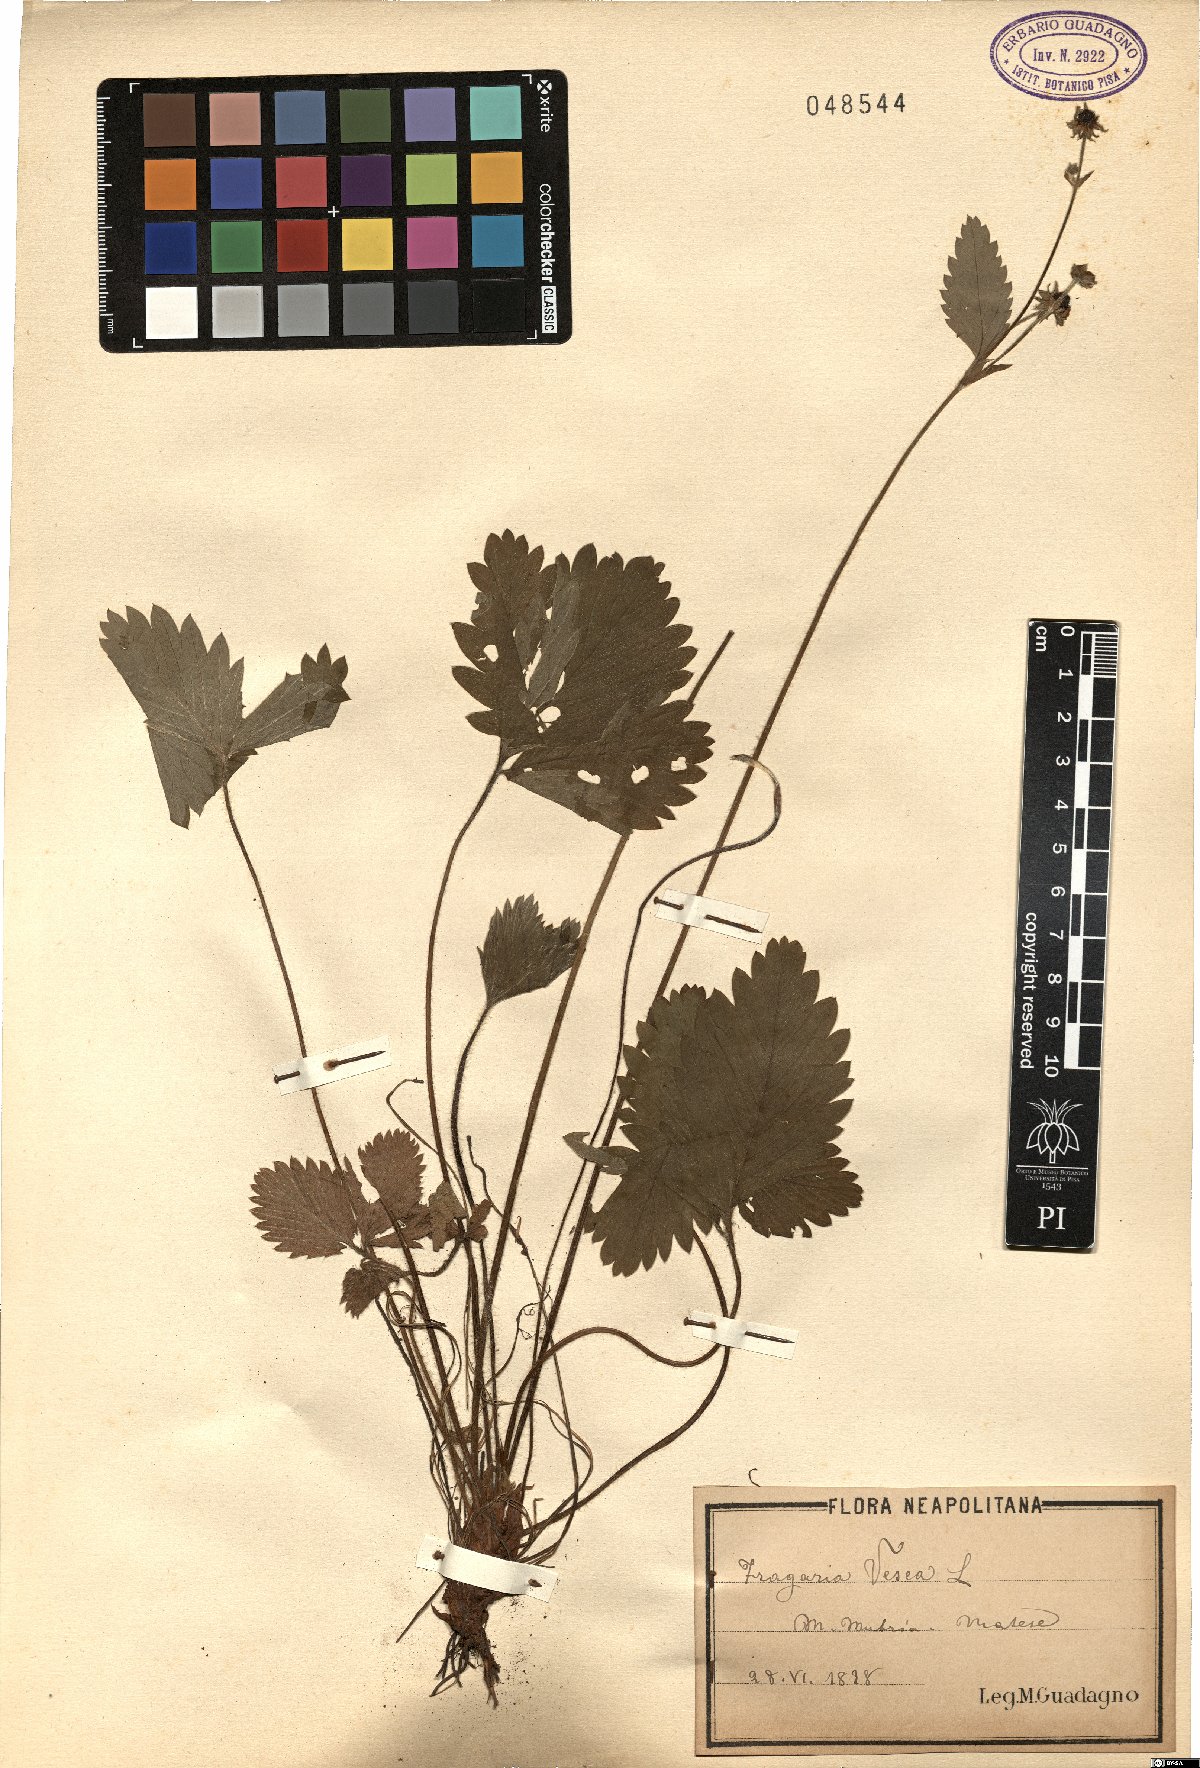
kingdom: Plantae
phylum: Tracheophyta
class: Magnoliopsida
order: Rosales
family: Rosaceae
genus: Fragaria
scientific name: Fragaria vesca
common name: Wild strawberry
